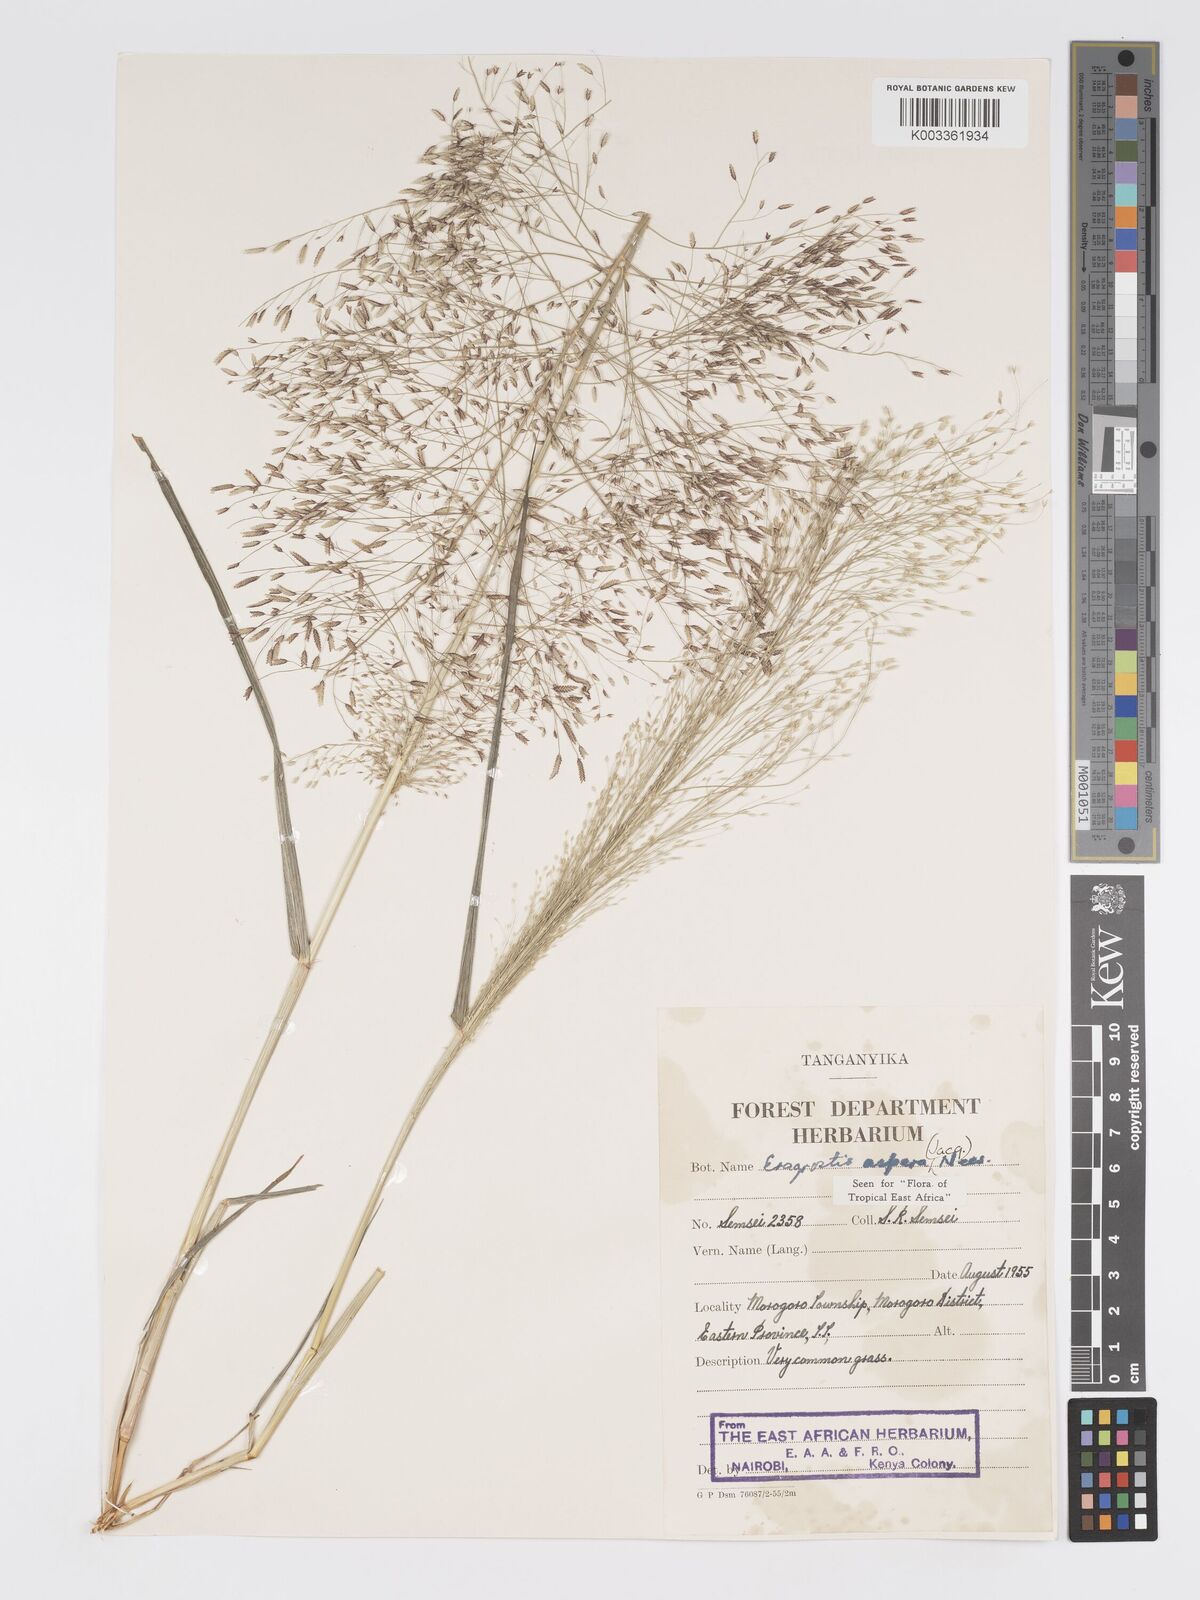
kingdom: Plantae
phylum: Tracheophyta
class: Liliopsida
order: Poales
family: Poaceae
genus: Eragrostis
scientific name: Eragrostis aspera
